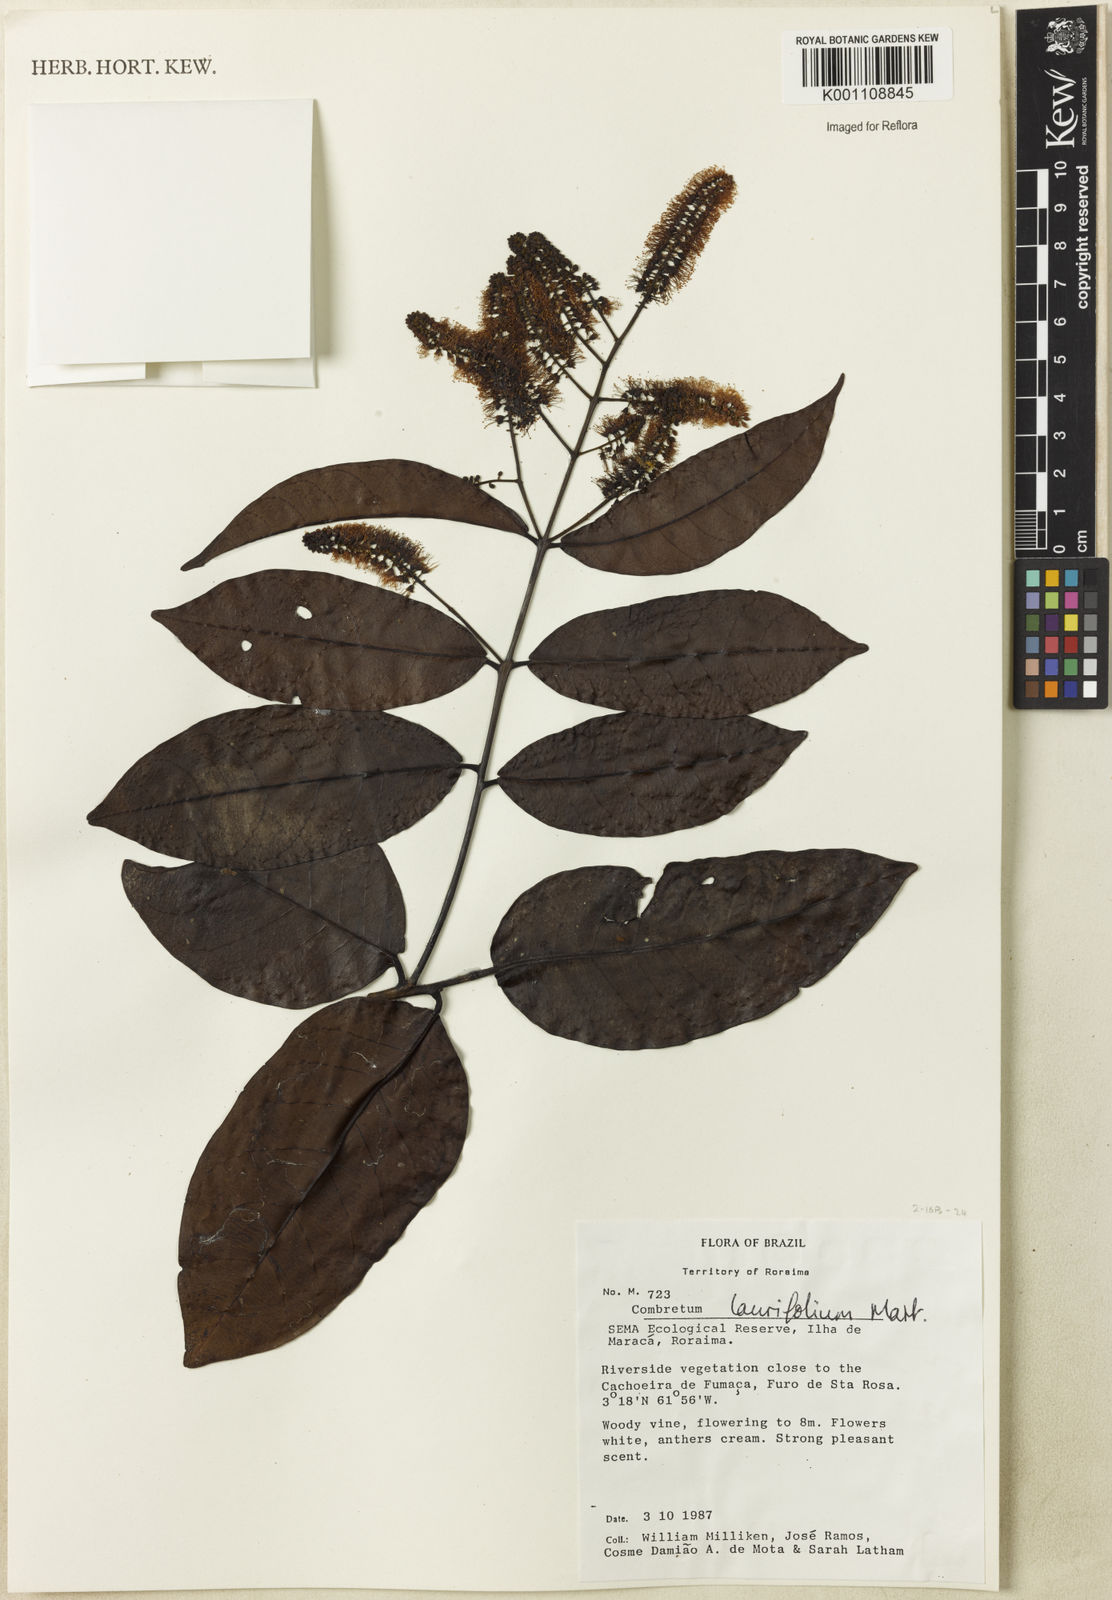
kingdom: Plantae
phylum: Tracheophyta
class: Magnoliopsida
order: Myrtales
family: Combretaceae
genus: Combretum
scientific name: Combretum
